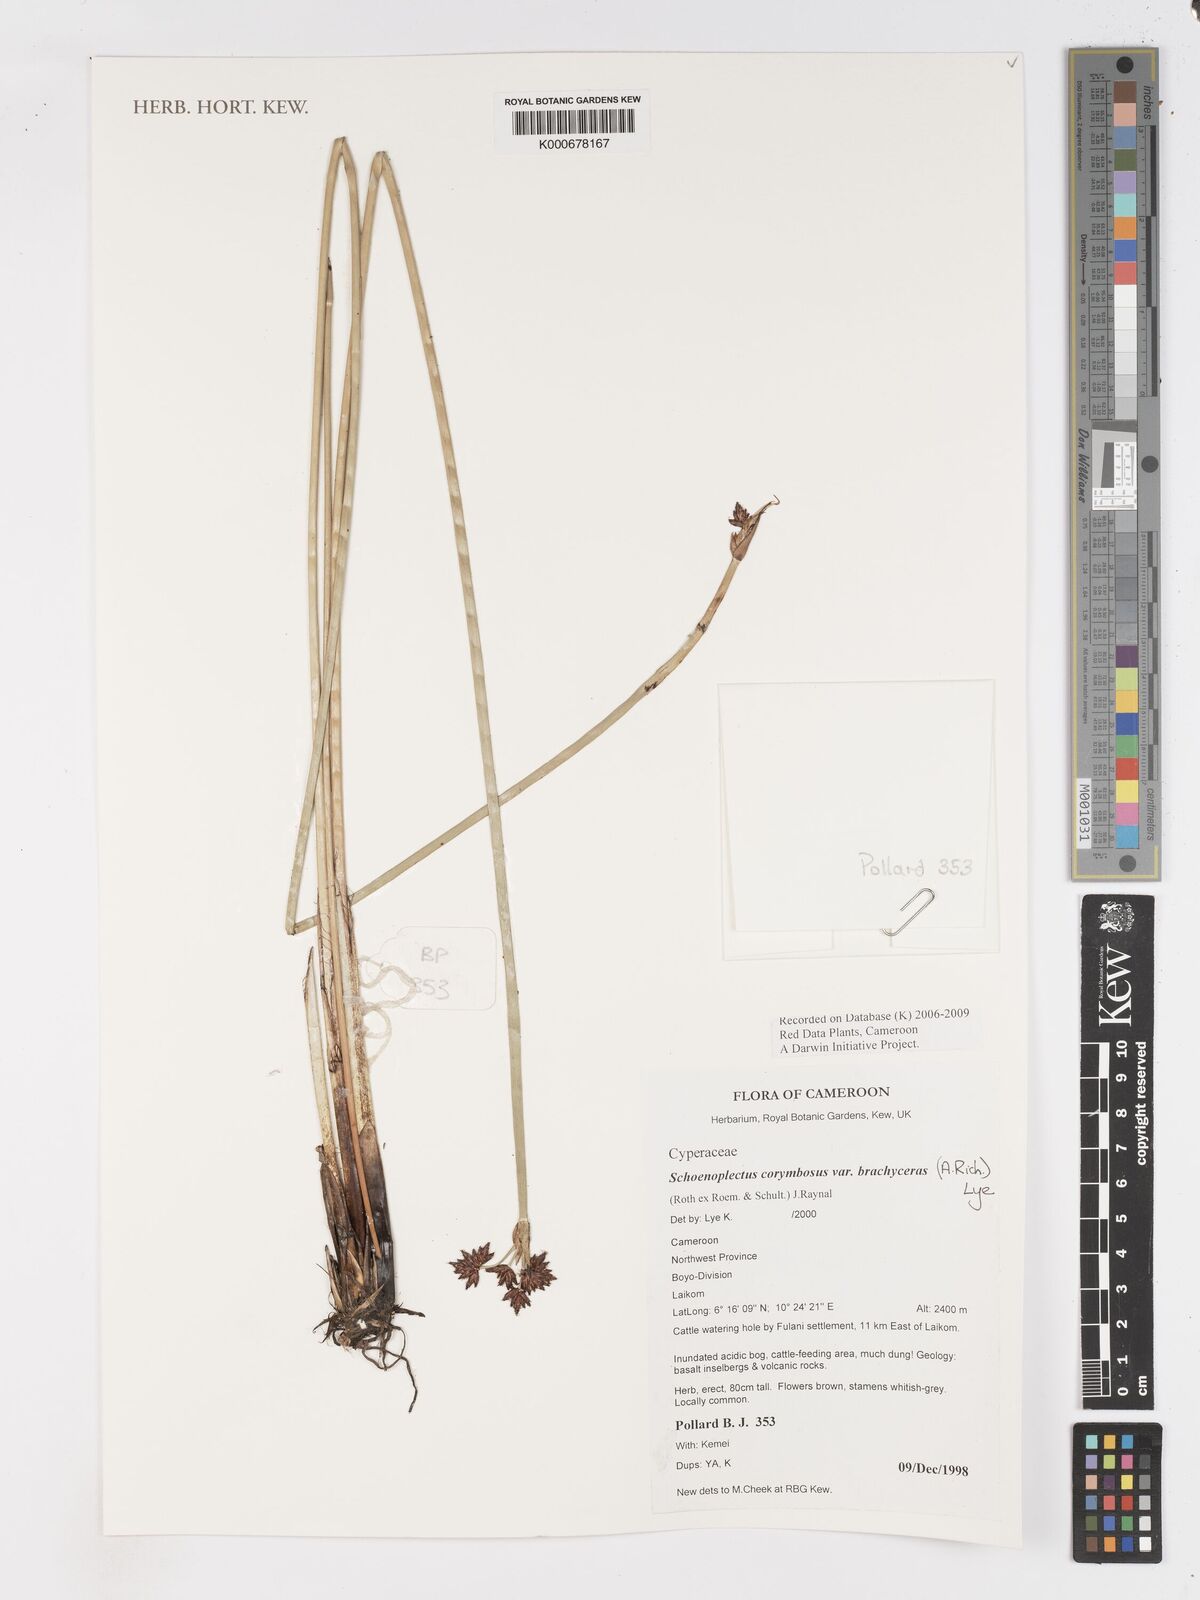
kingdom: Plantae
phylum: Tracheophyta
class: Liliopsida
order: Poales
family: Cyperaceae
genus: Schoenoplectiella
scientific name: Schoenoplectiella brachyceras
